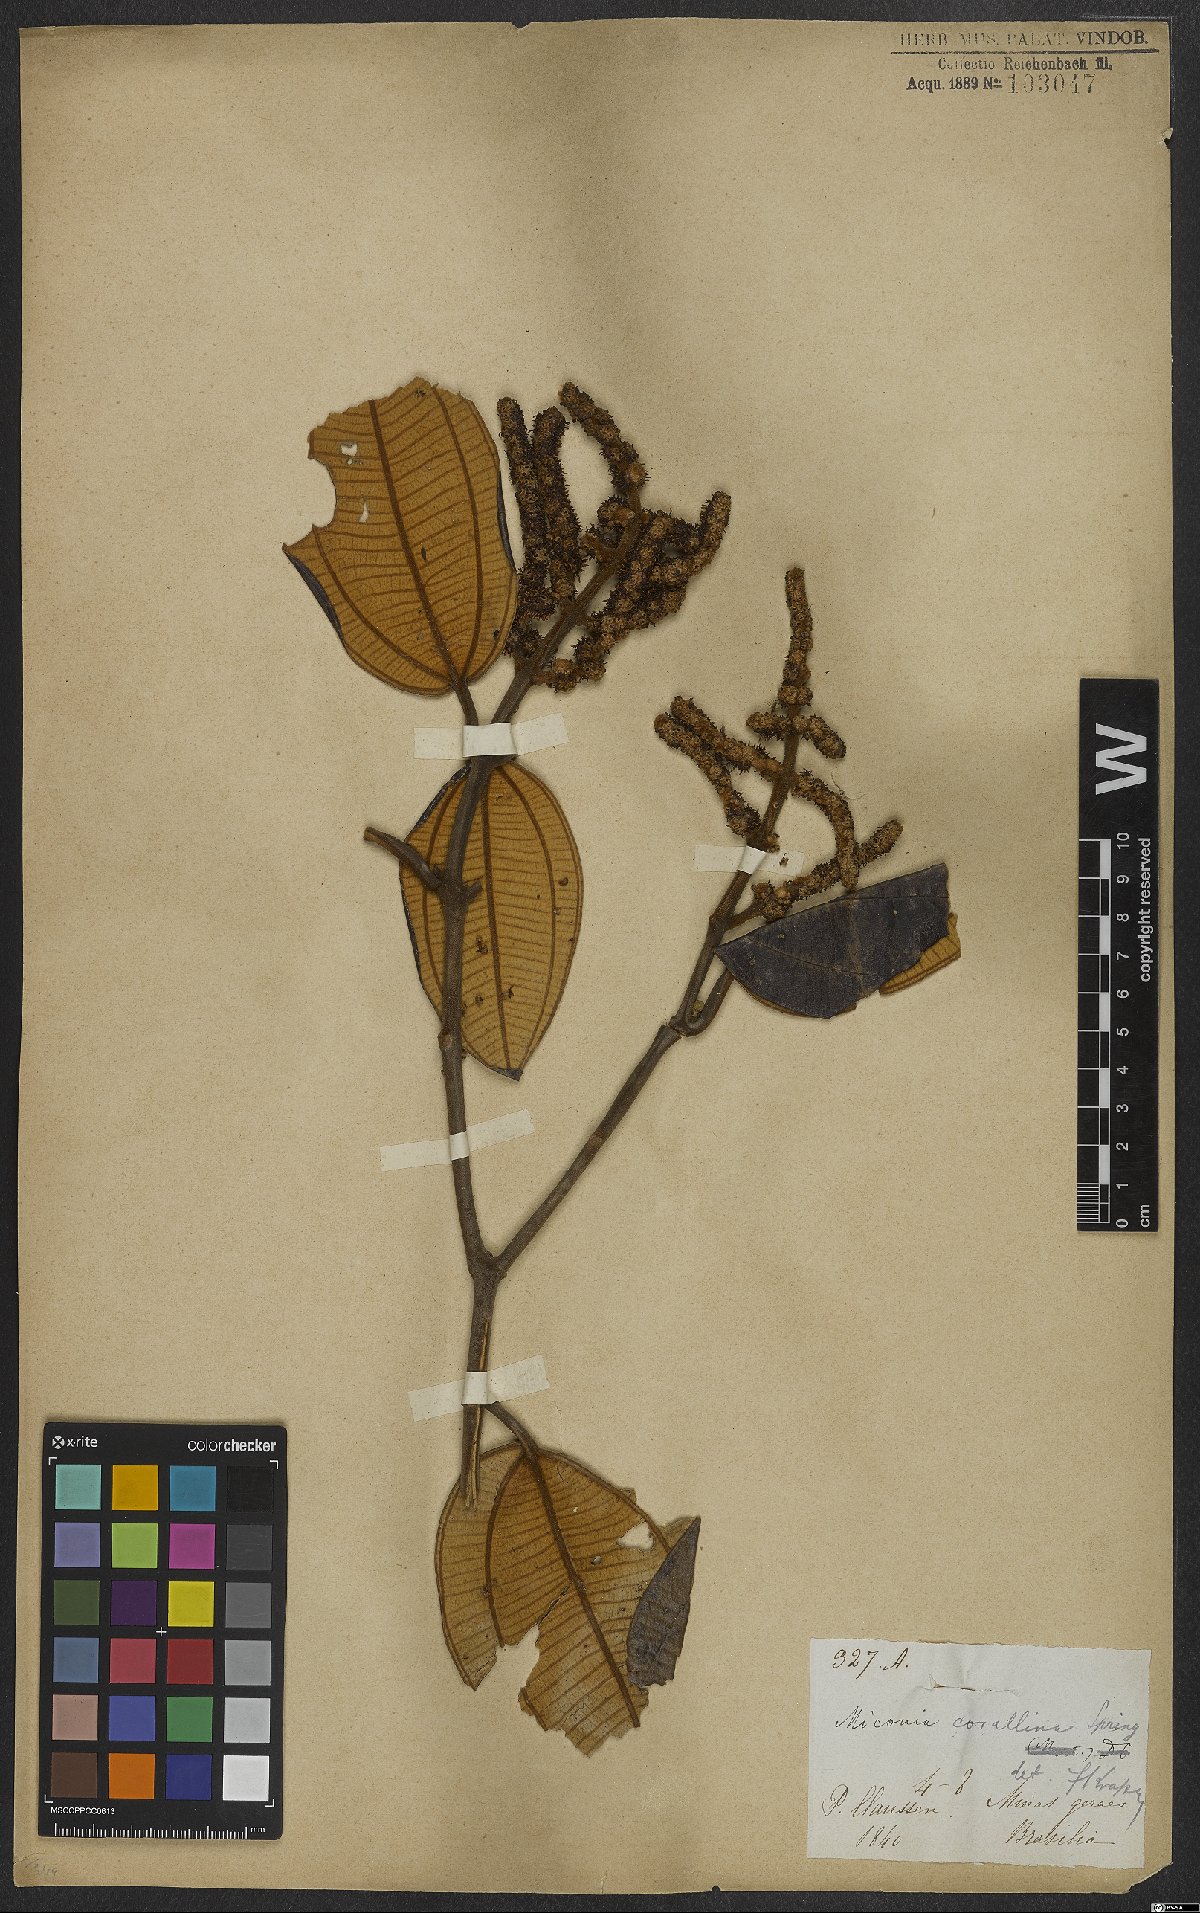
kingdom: Plantae
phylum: Tracheophyta
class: Magnoliopsida
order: Myrtales
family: Melastomataceae
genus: Miconia
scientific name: Miconia corallina
